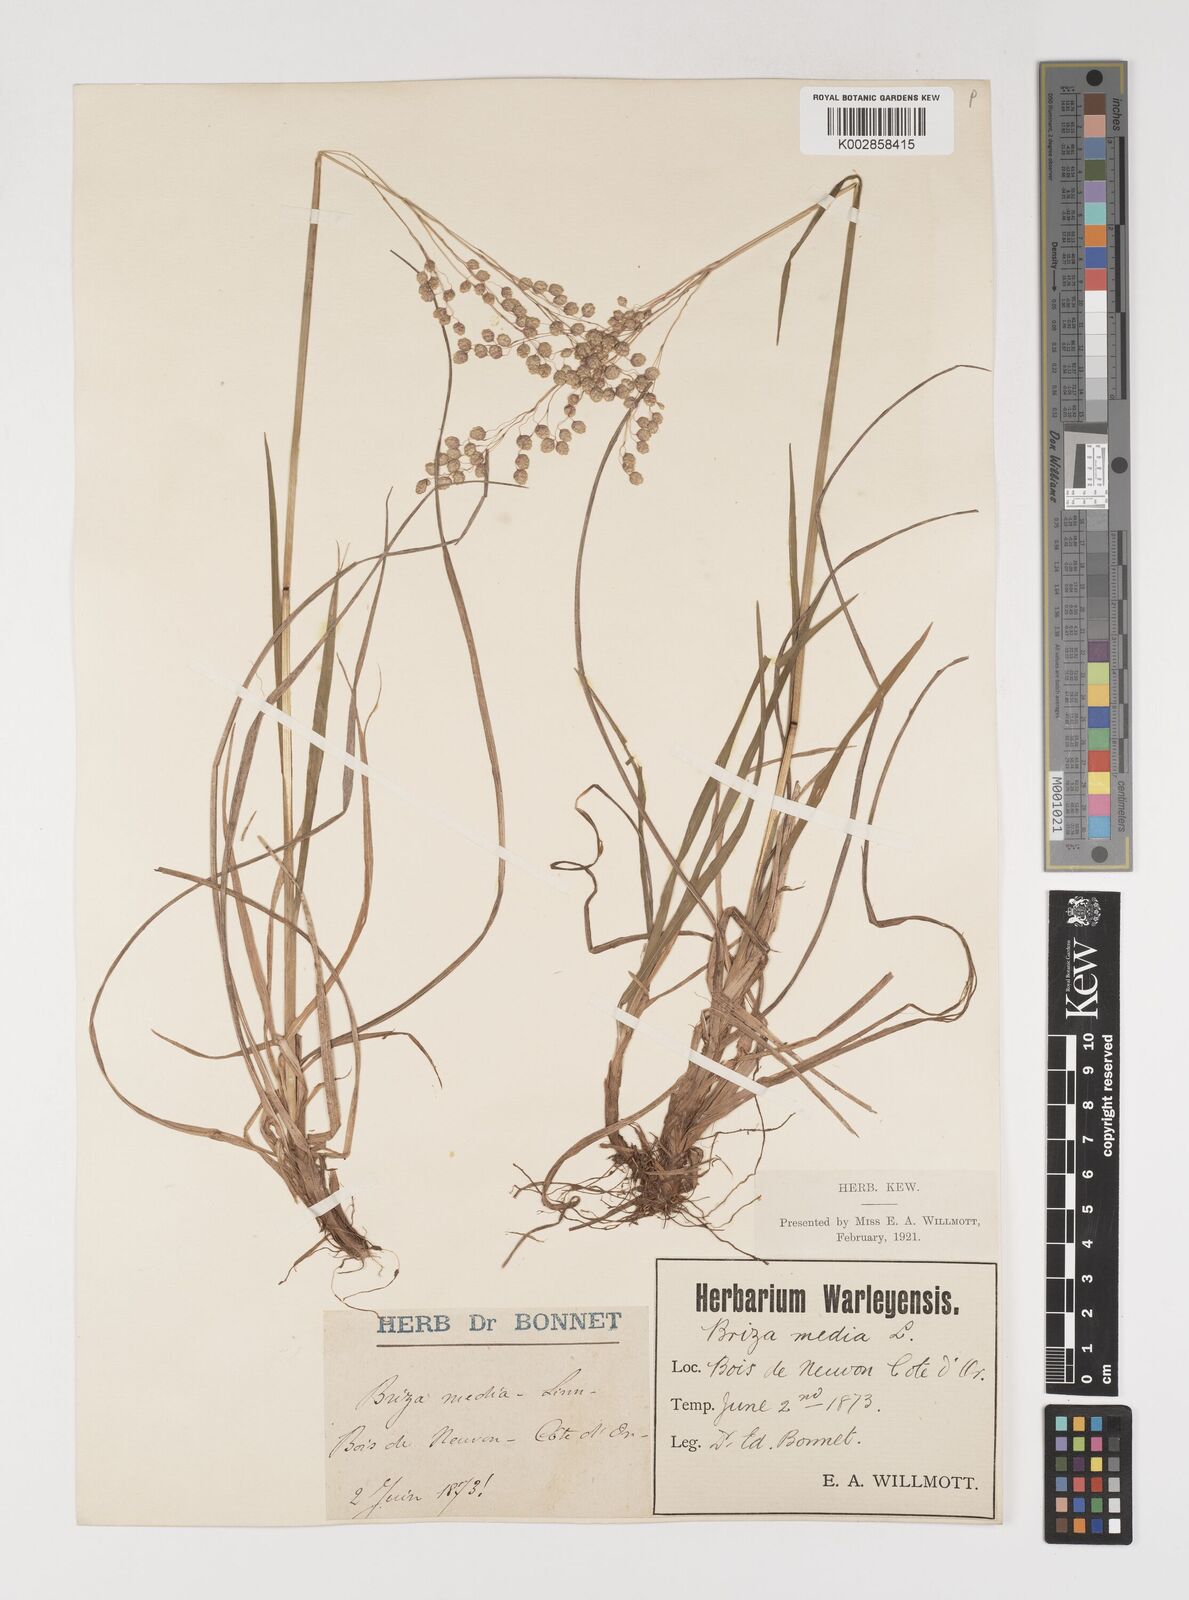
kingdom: Plantae
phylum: Tracheophyta
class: Liliopsida
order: Poales
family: Poaceae
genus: Briza
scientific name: Briza media
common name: Quaking grass
